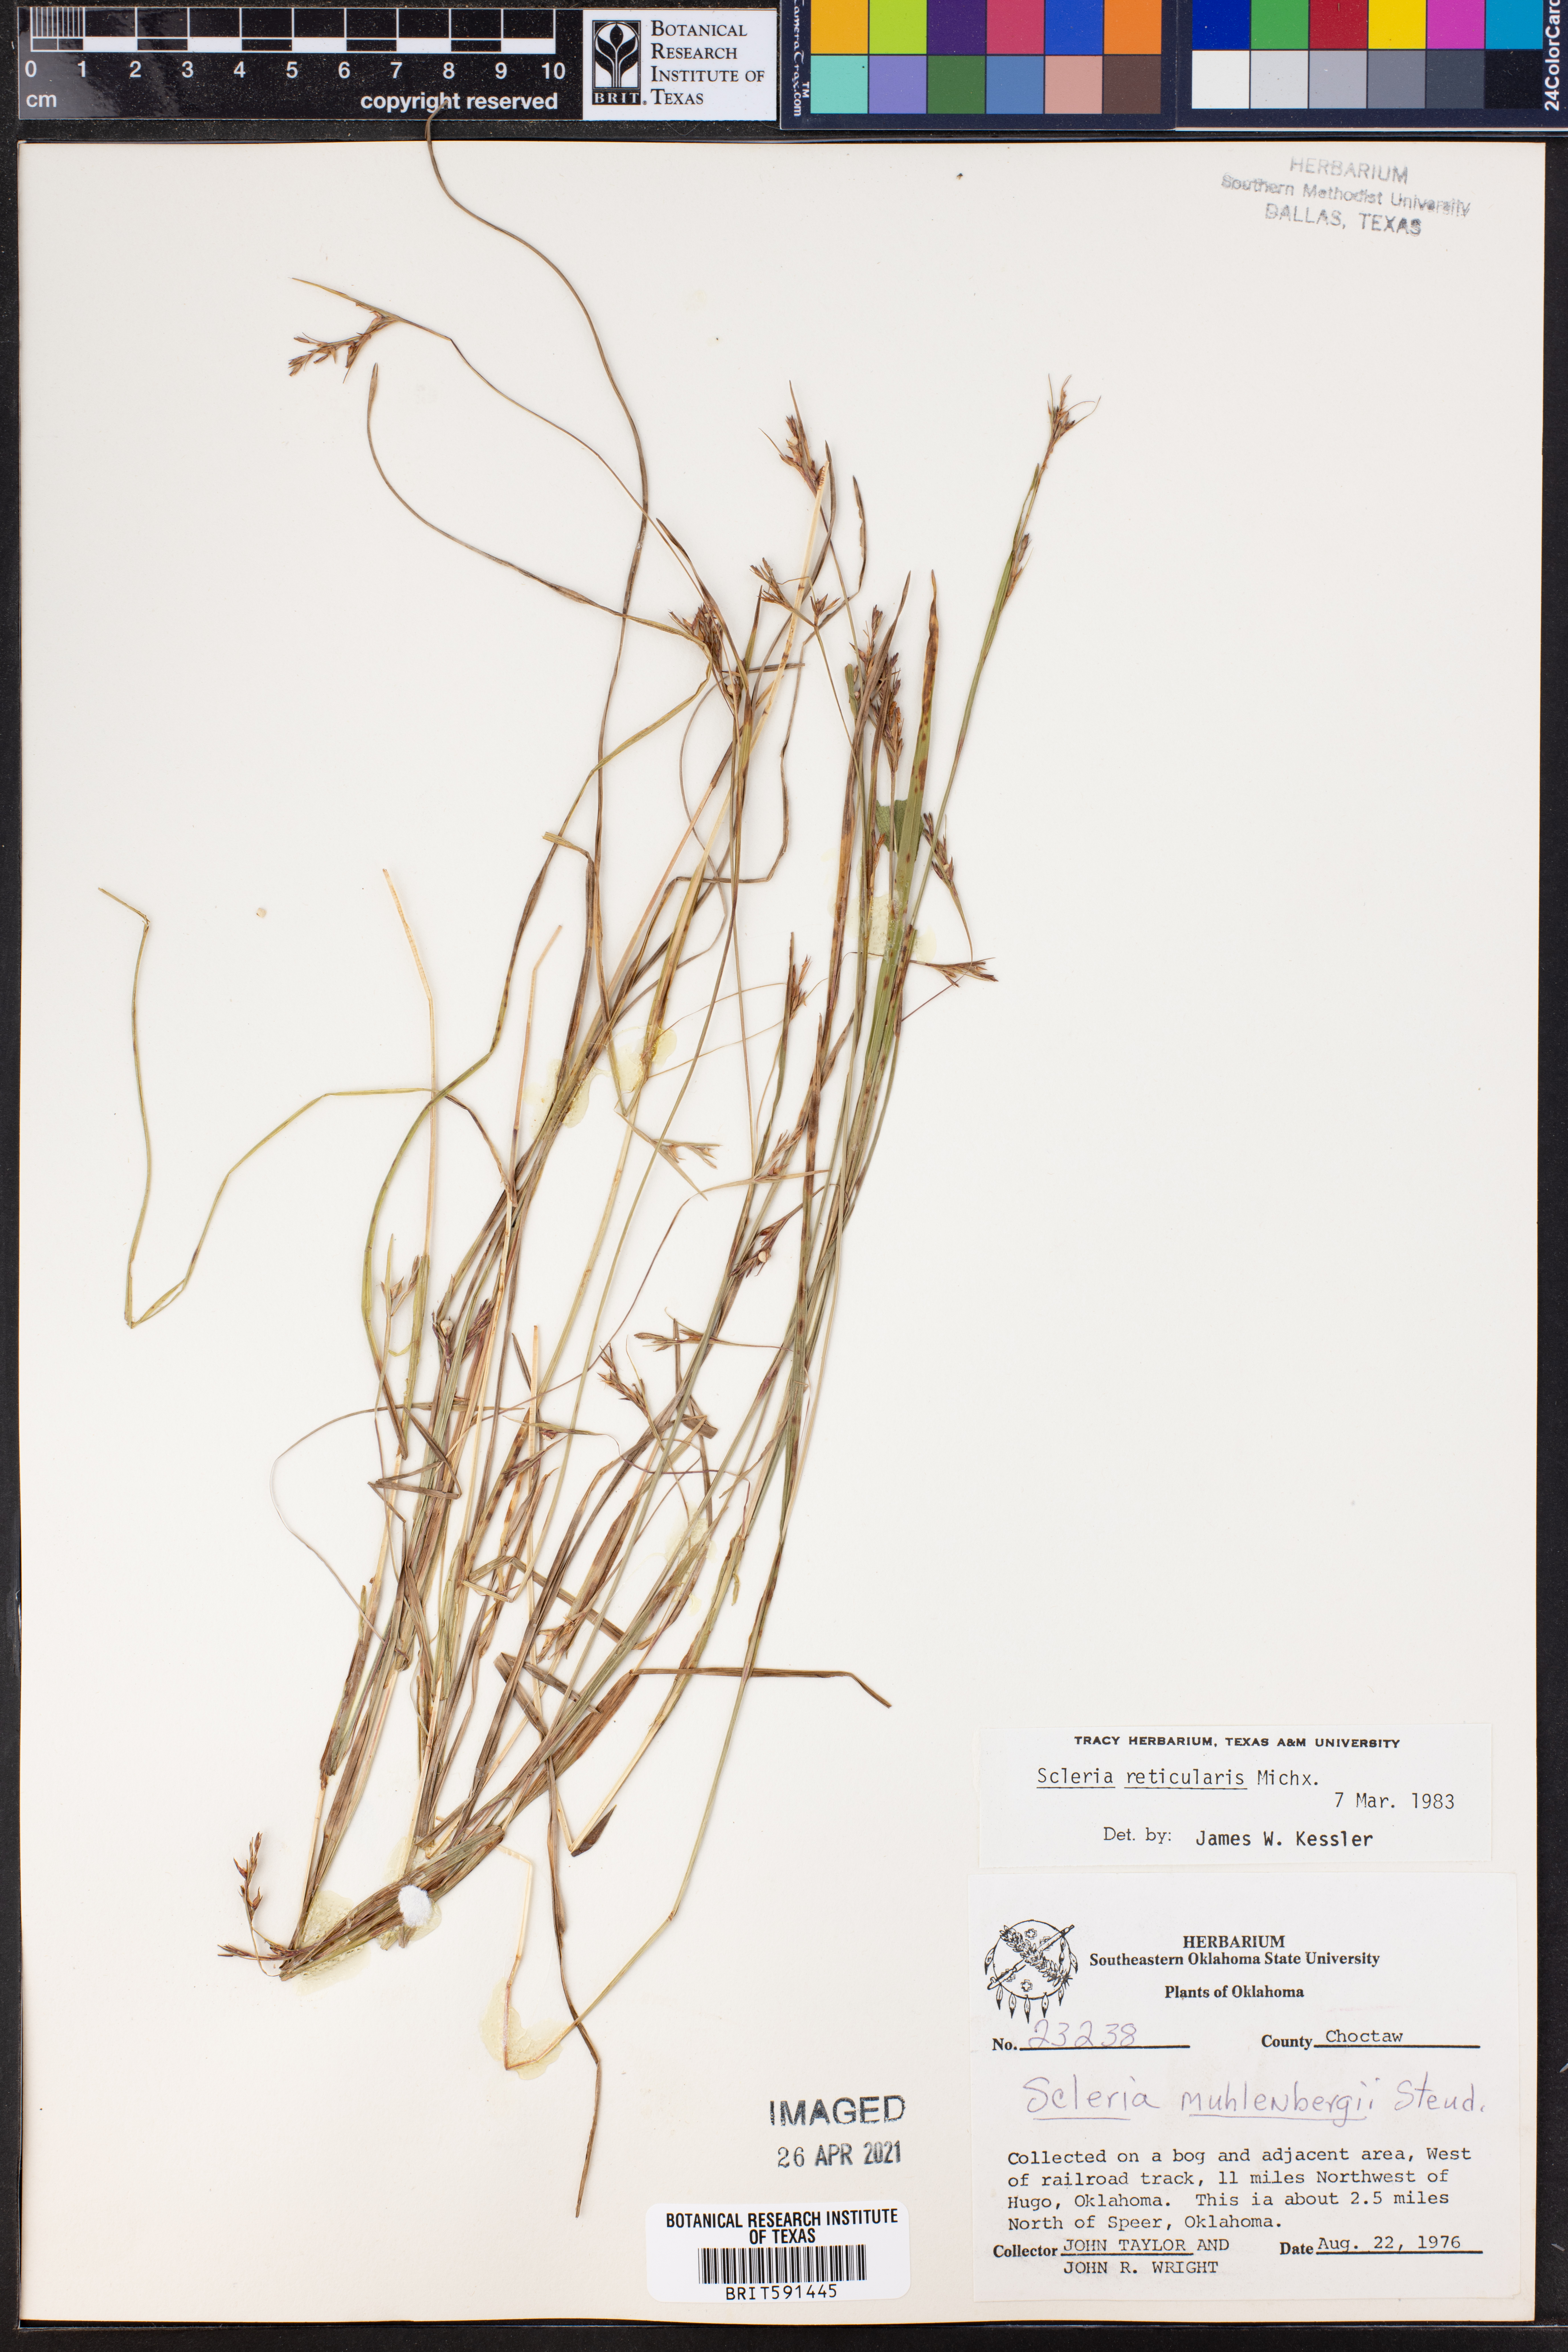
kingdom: Plantae
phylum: Tracheophyta
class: Liliopsida
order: Poales
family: Cyperaceae
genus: Scleria
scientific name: Scleria reticularis
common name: Netted nutrush
